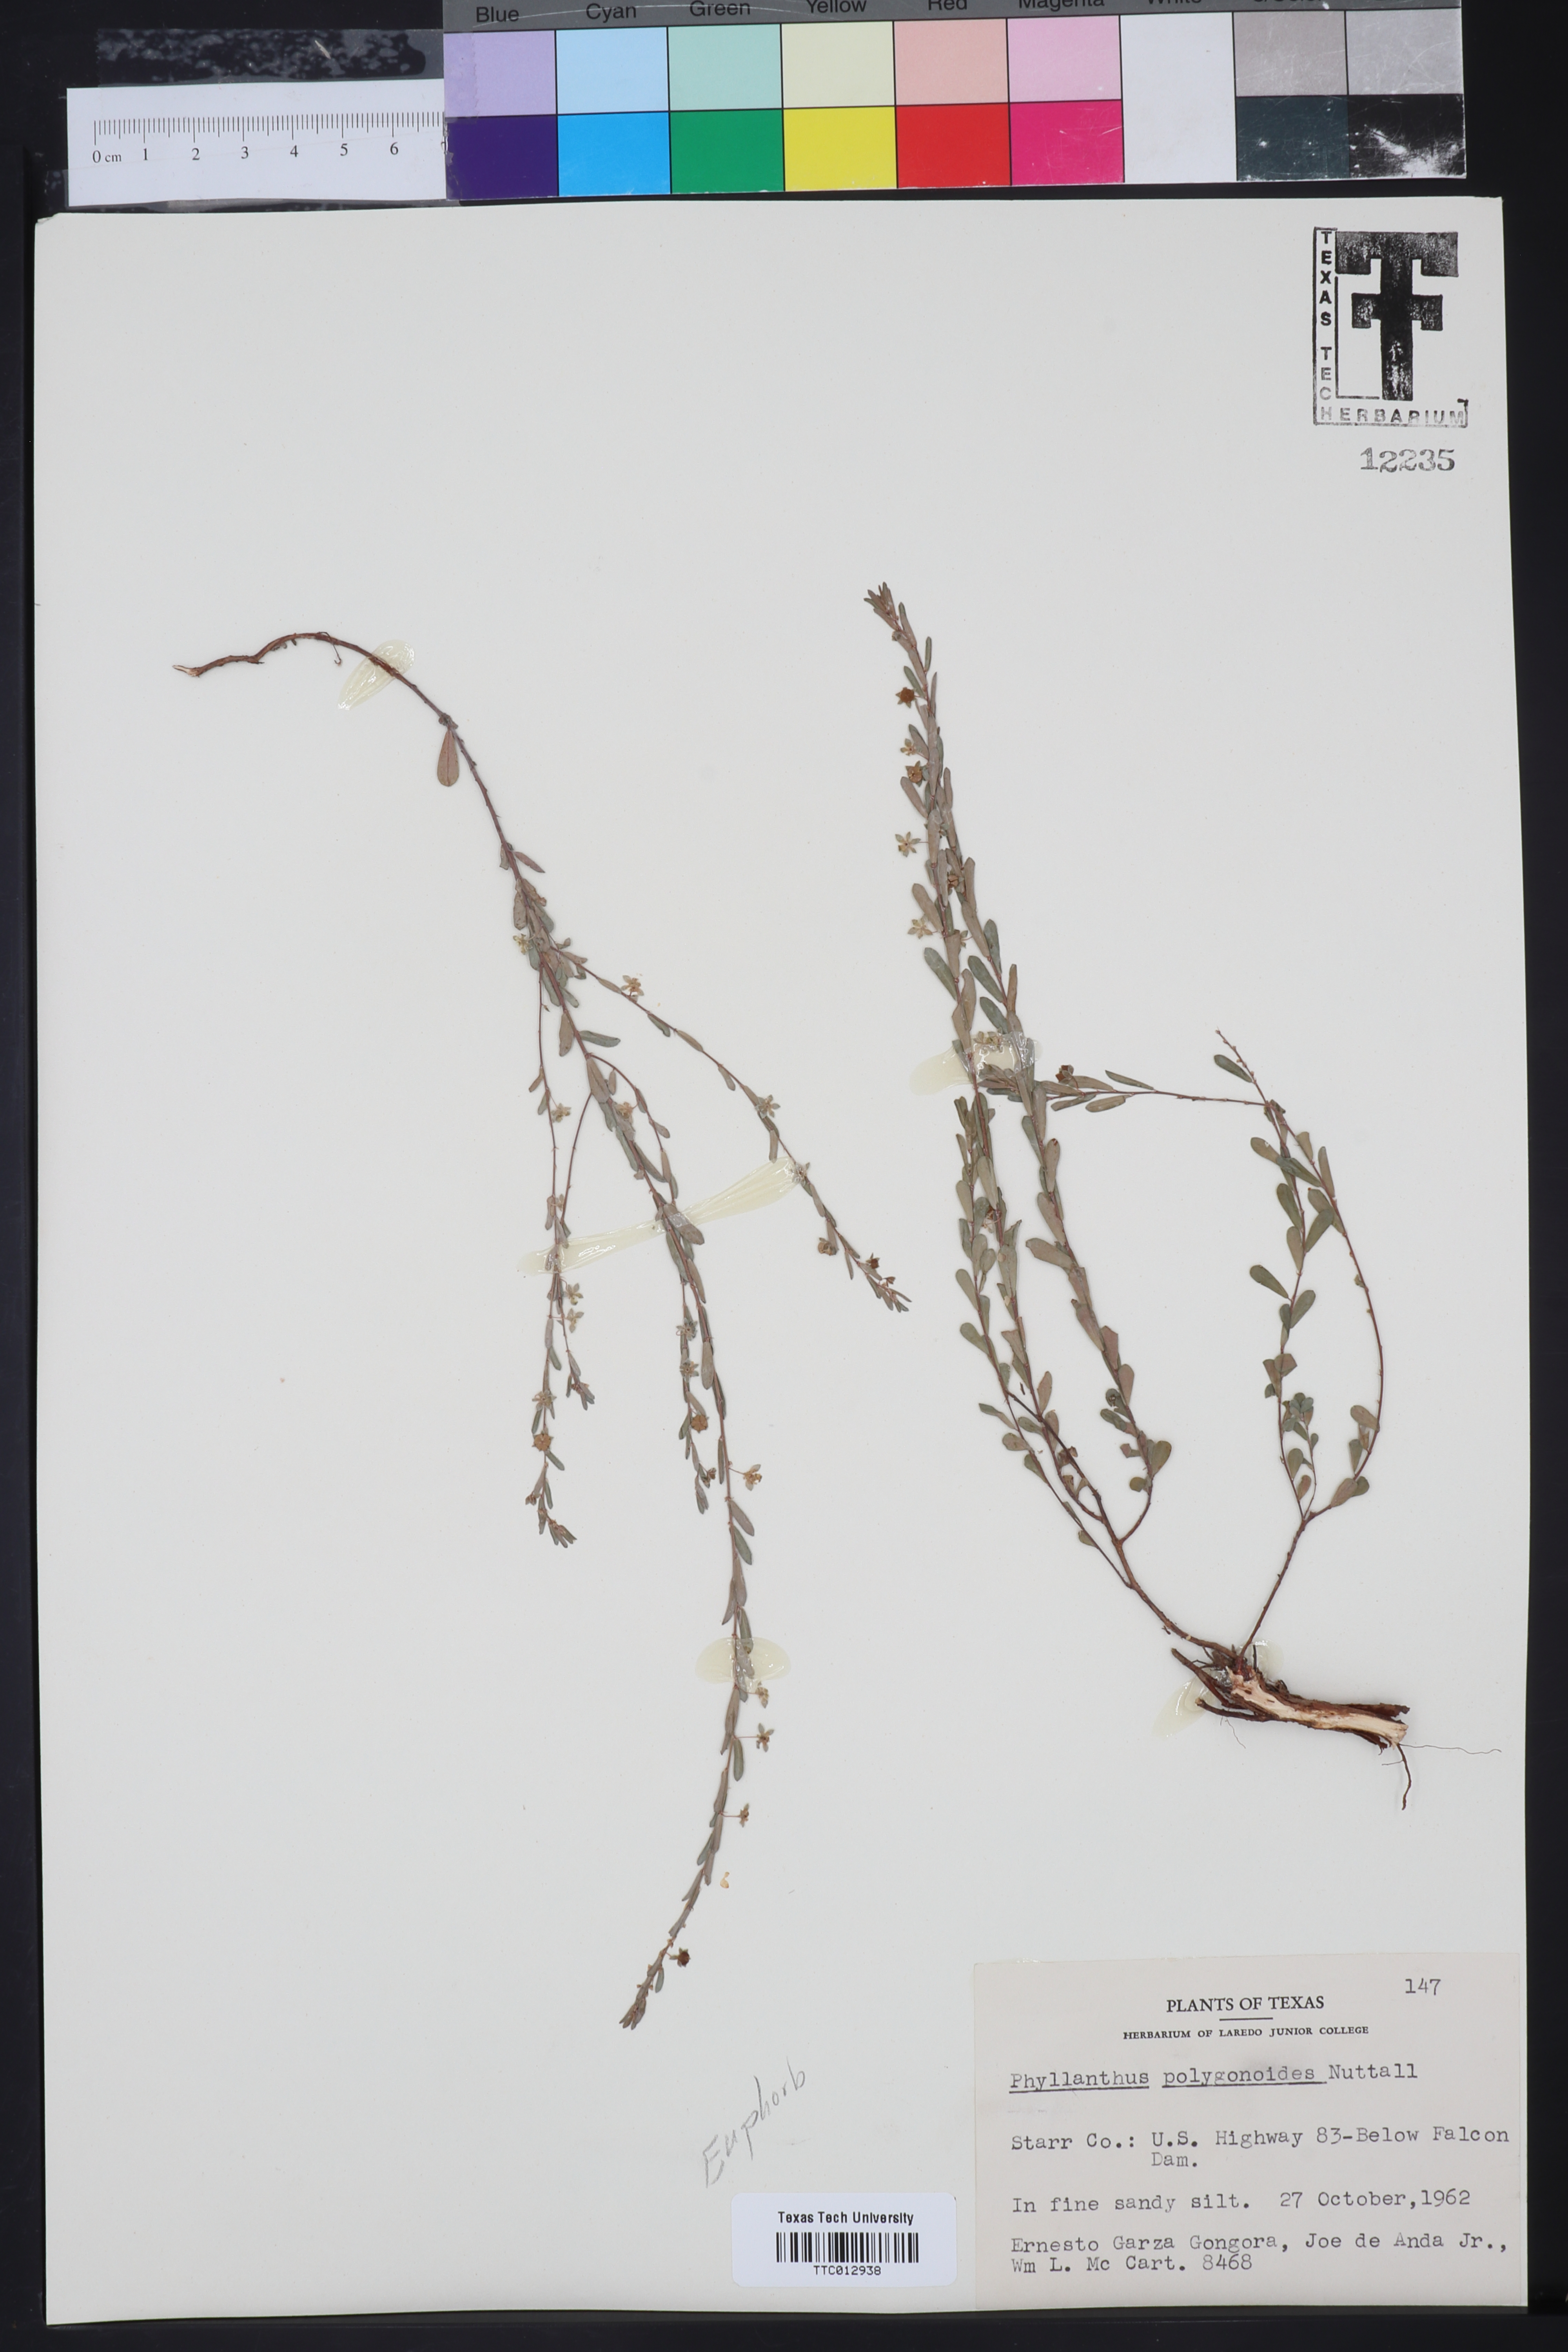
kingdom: Plantae
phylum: Tracheophyta
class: Magnoliopsida
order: Malpighiales
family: Phyllanthaceae
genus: Phyllanthus
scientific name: Phyllanthus polygonoides
